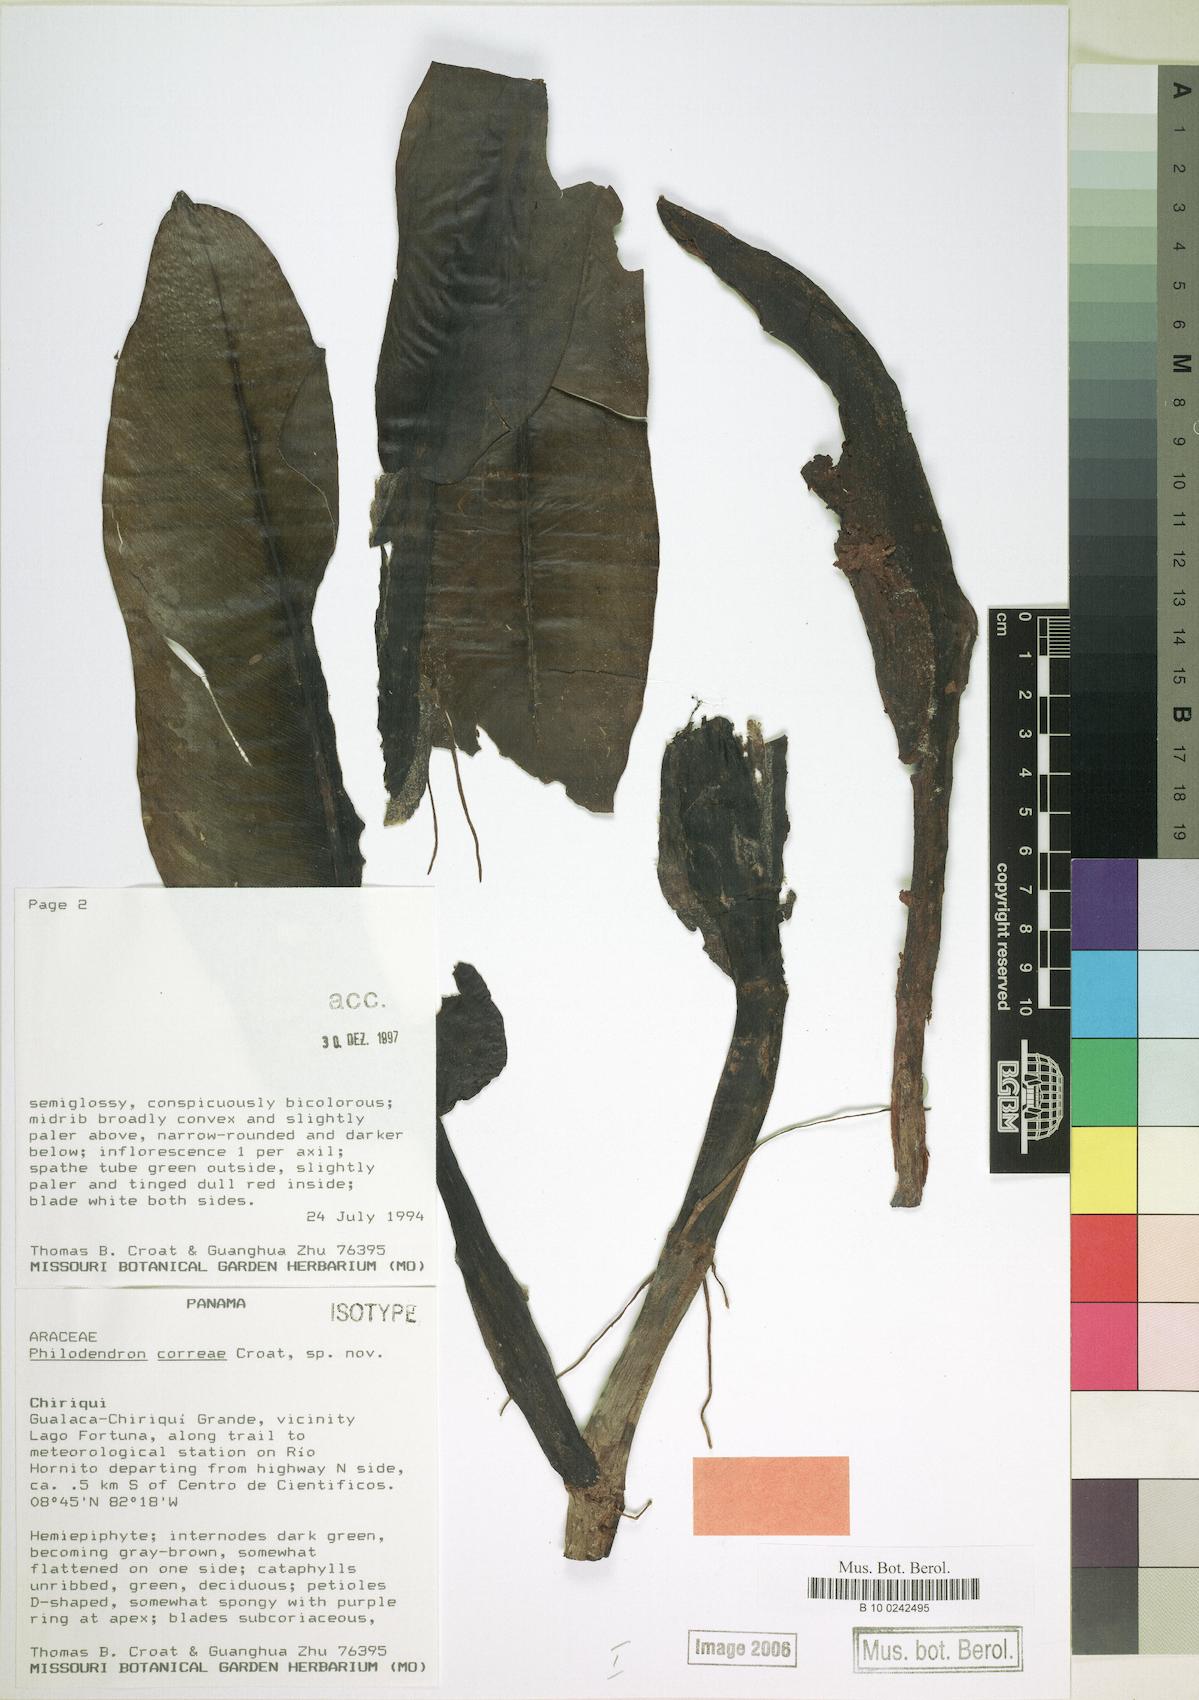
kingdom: Plantae
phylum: Tracheophyta
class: Liliopsida
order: Alismatales
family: Araceae
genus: Philodendron
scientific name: Philodendron correae
